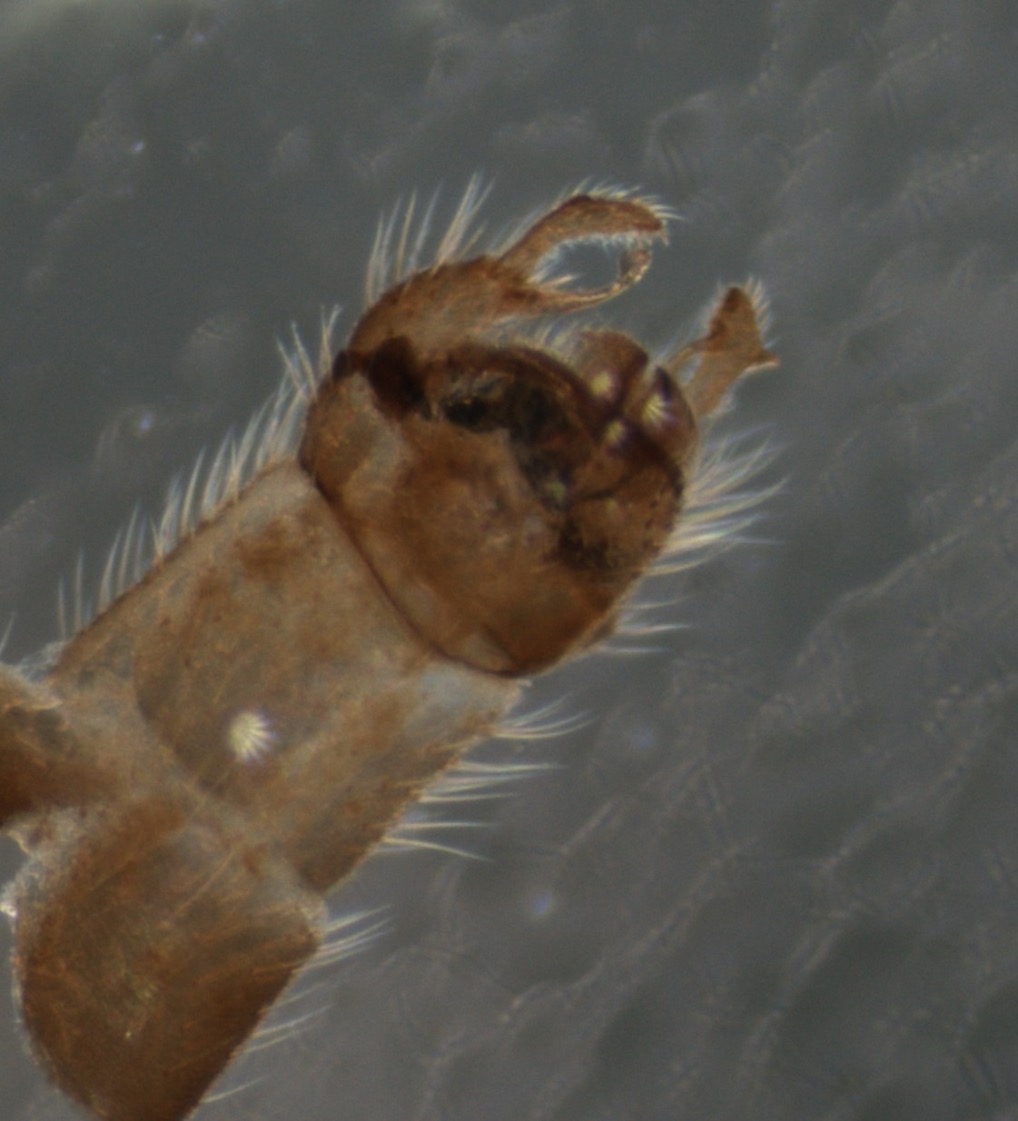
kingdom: Animalia
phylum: Arthropoda
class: Insecta
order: Diptera
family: Dixidae
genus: Dixella
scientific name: Dixella serotina
